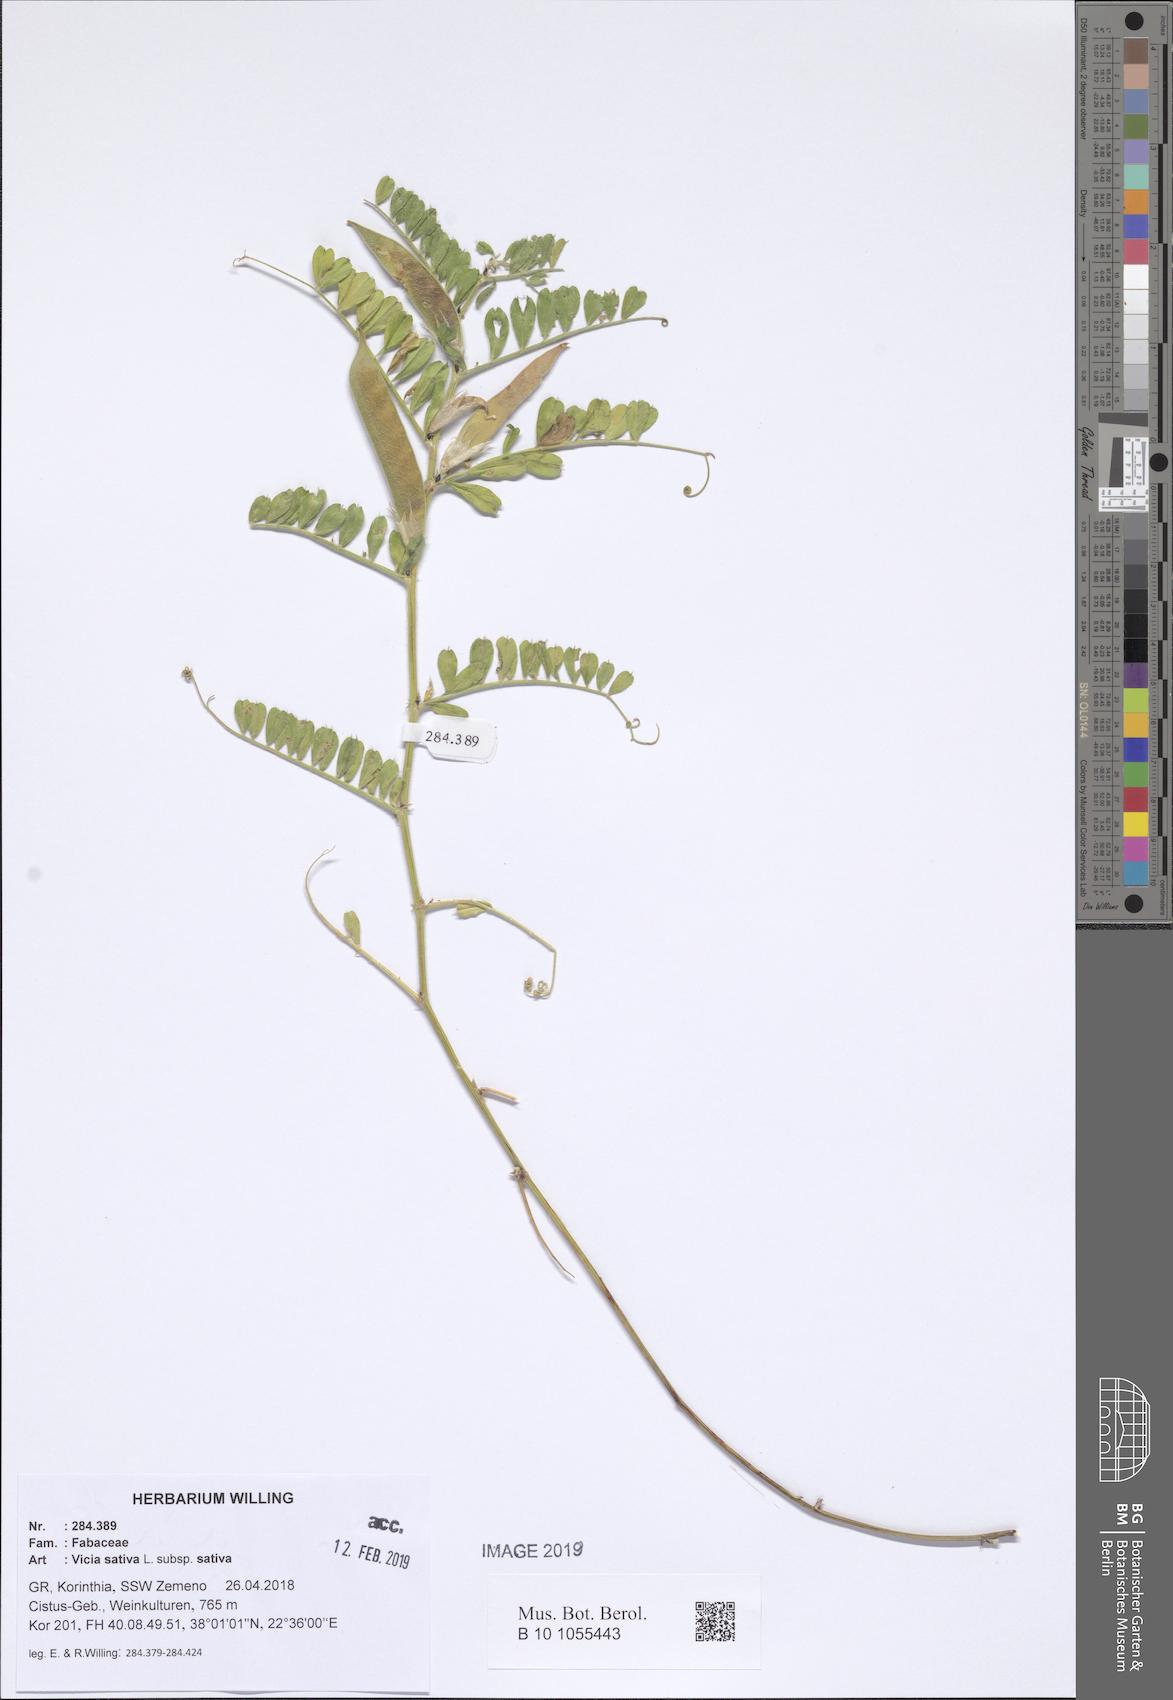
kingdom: Plantae
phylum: Tracheophyta
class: Magnoliopsida
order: Fabales
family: Fabaceae
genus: Vicia
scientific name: Vicia sativa
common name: Garden vetch
